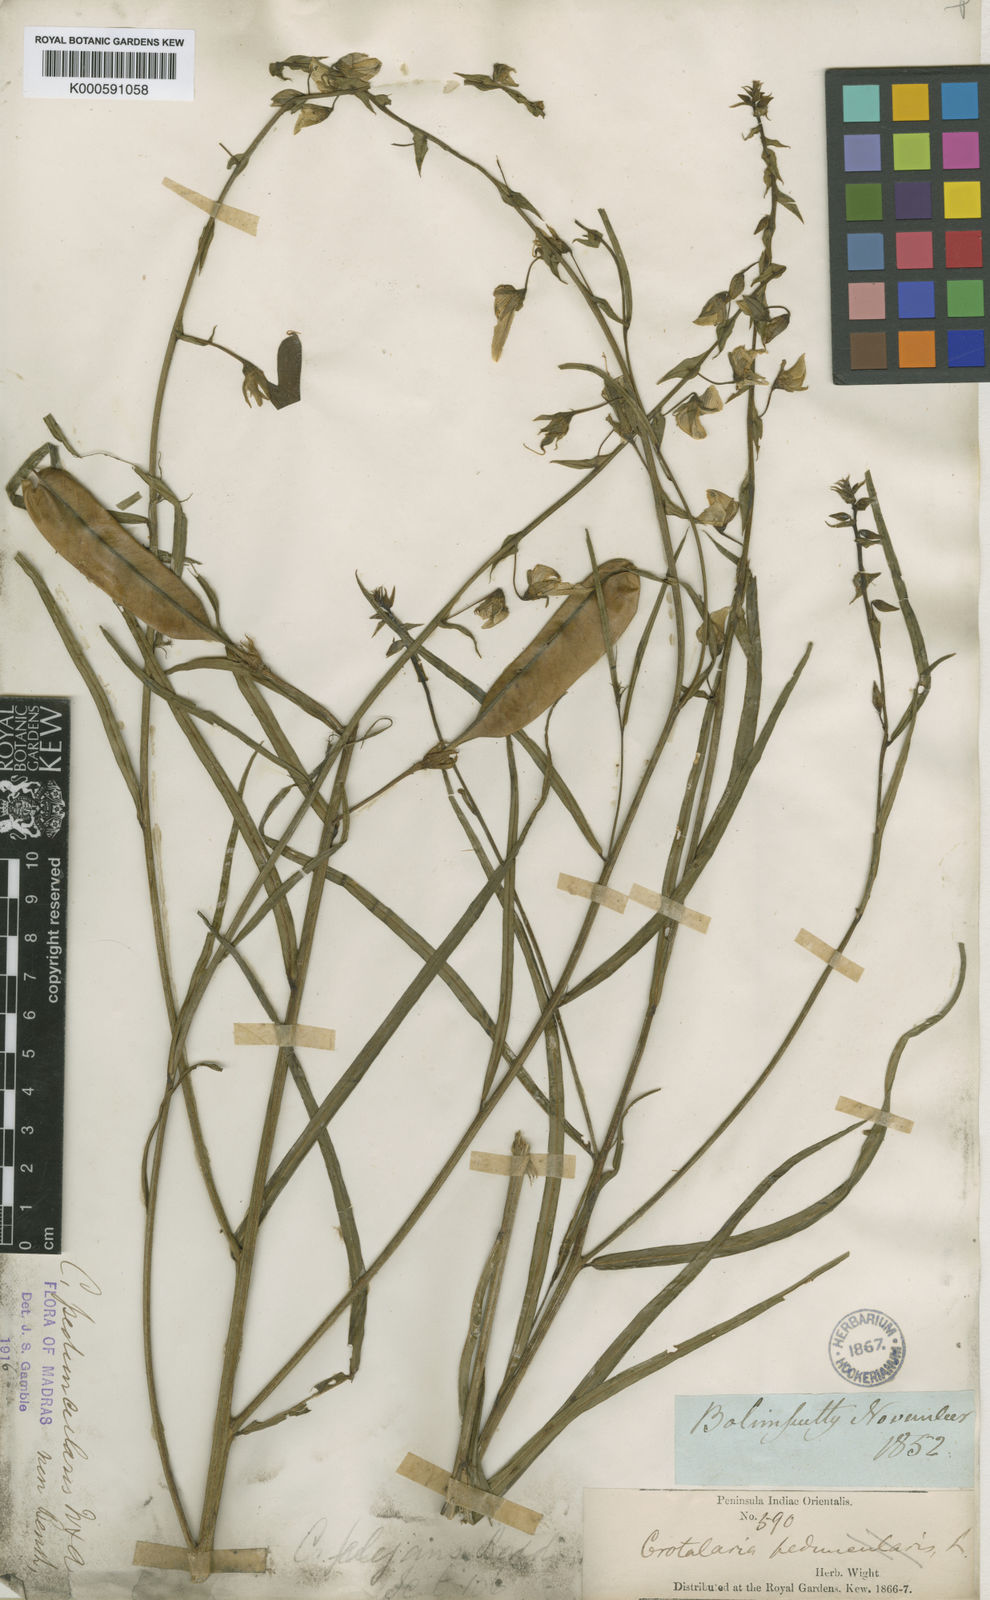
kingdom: Plantae
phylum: Tracheophyta
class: Magnoliopsida
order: Fabales
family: Fabaceae
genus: Crotalaria
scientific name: Crotalaria
